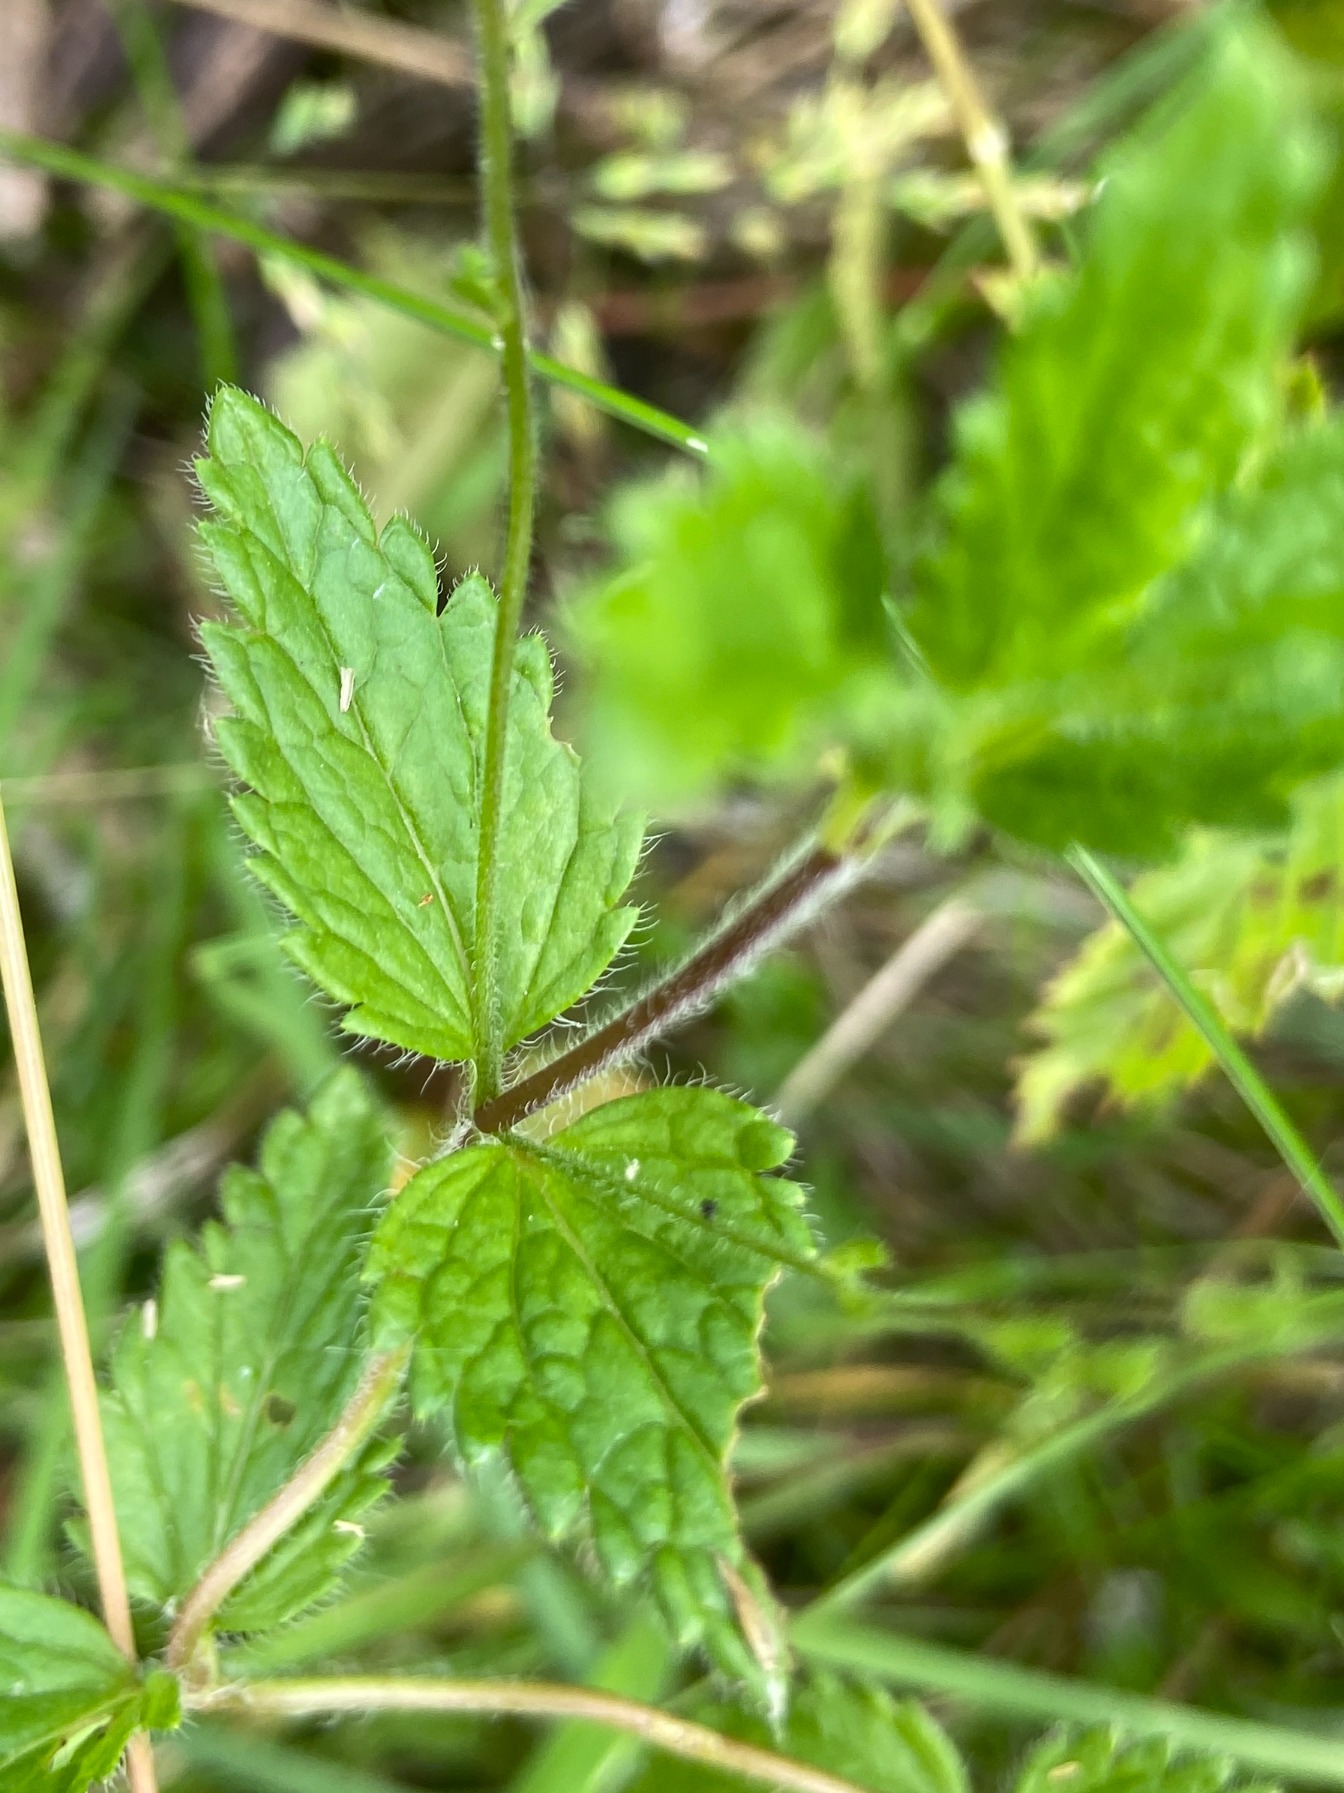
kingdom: Plantae
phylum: Tracheophyta
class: Magnoliopsida
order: Lamiales
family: Plantaginaceae
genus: Veronica
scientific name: Veronica chamaedrys
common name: Tveskægget ærenpris
